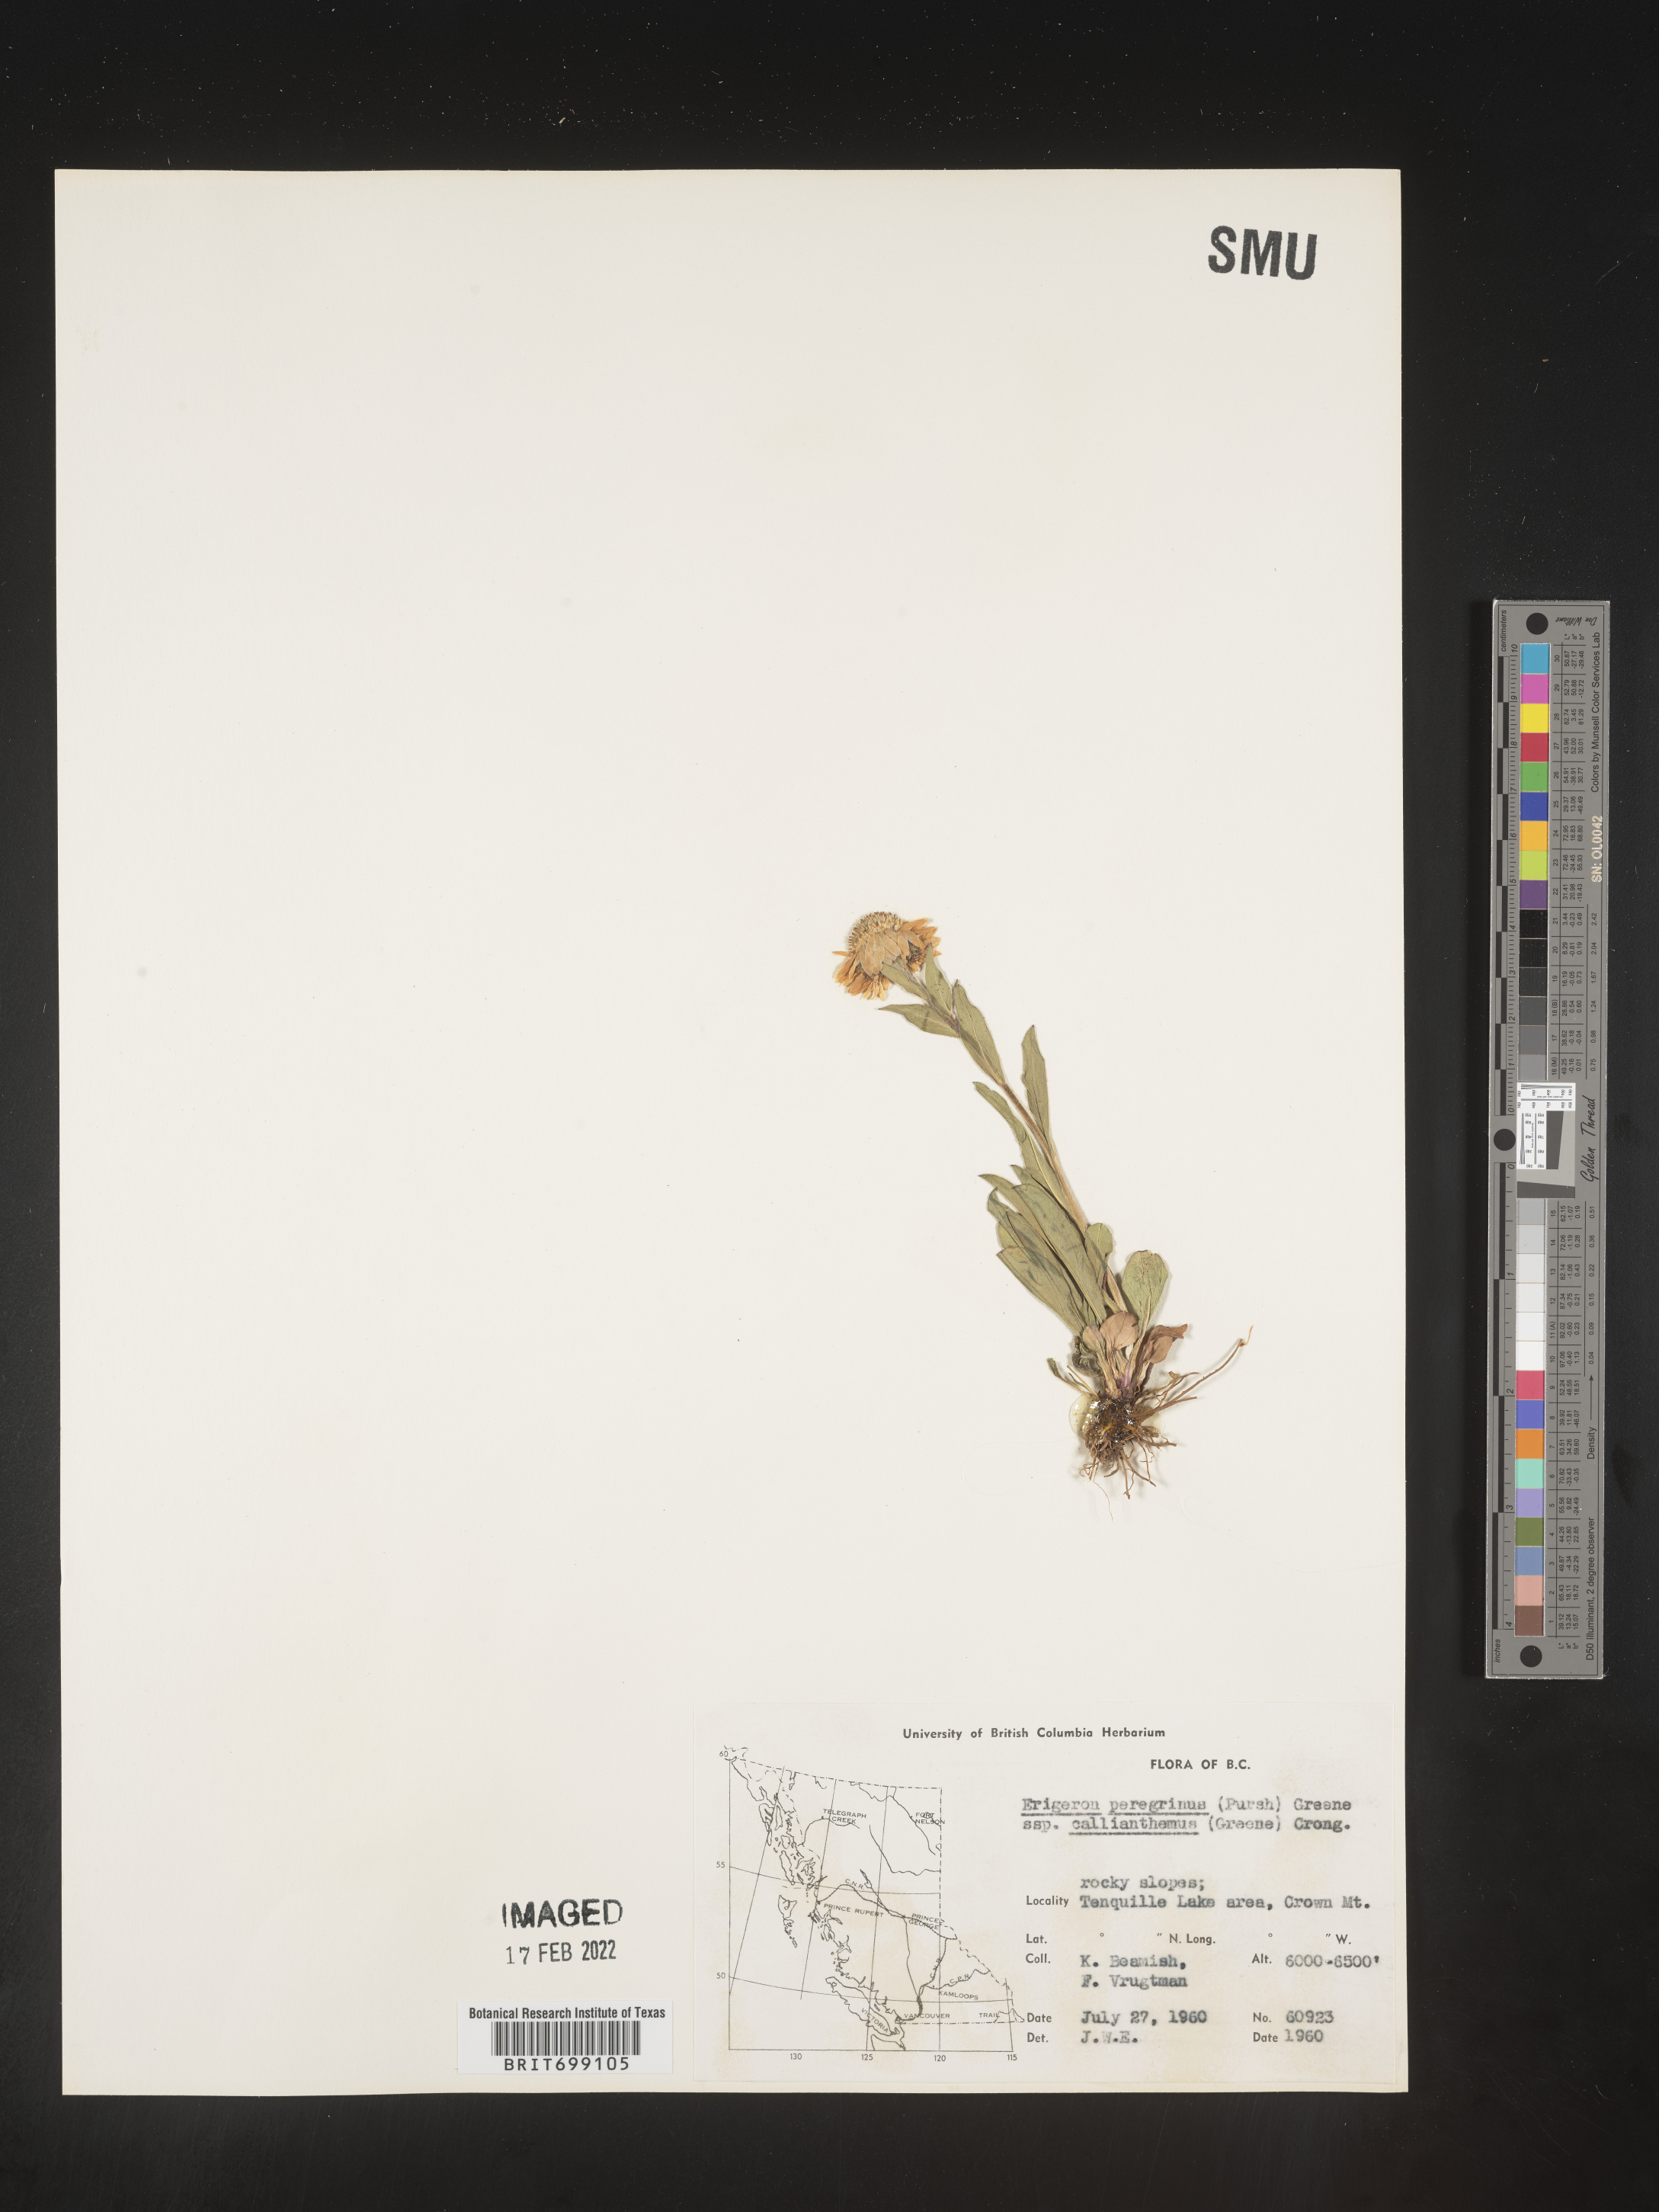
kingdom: Plantae
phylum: Tracheophyta
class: Magnoliopsida
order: Asterales
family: Asteraceae
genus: Erigeron
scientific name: Erigeron peregrinus
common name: Peregrine fleabane
